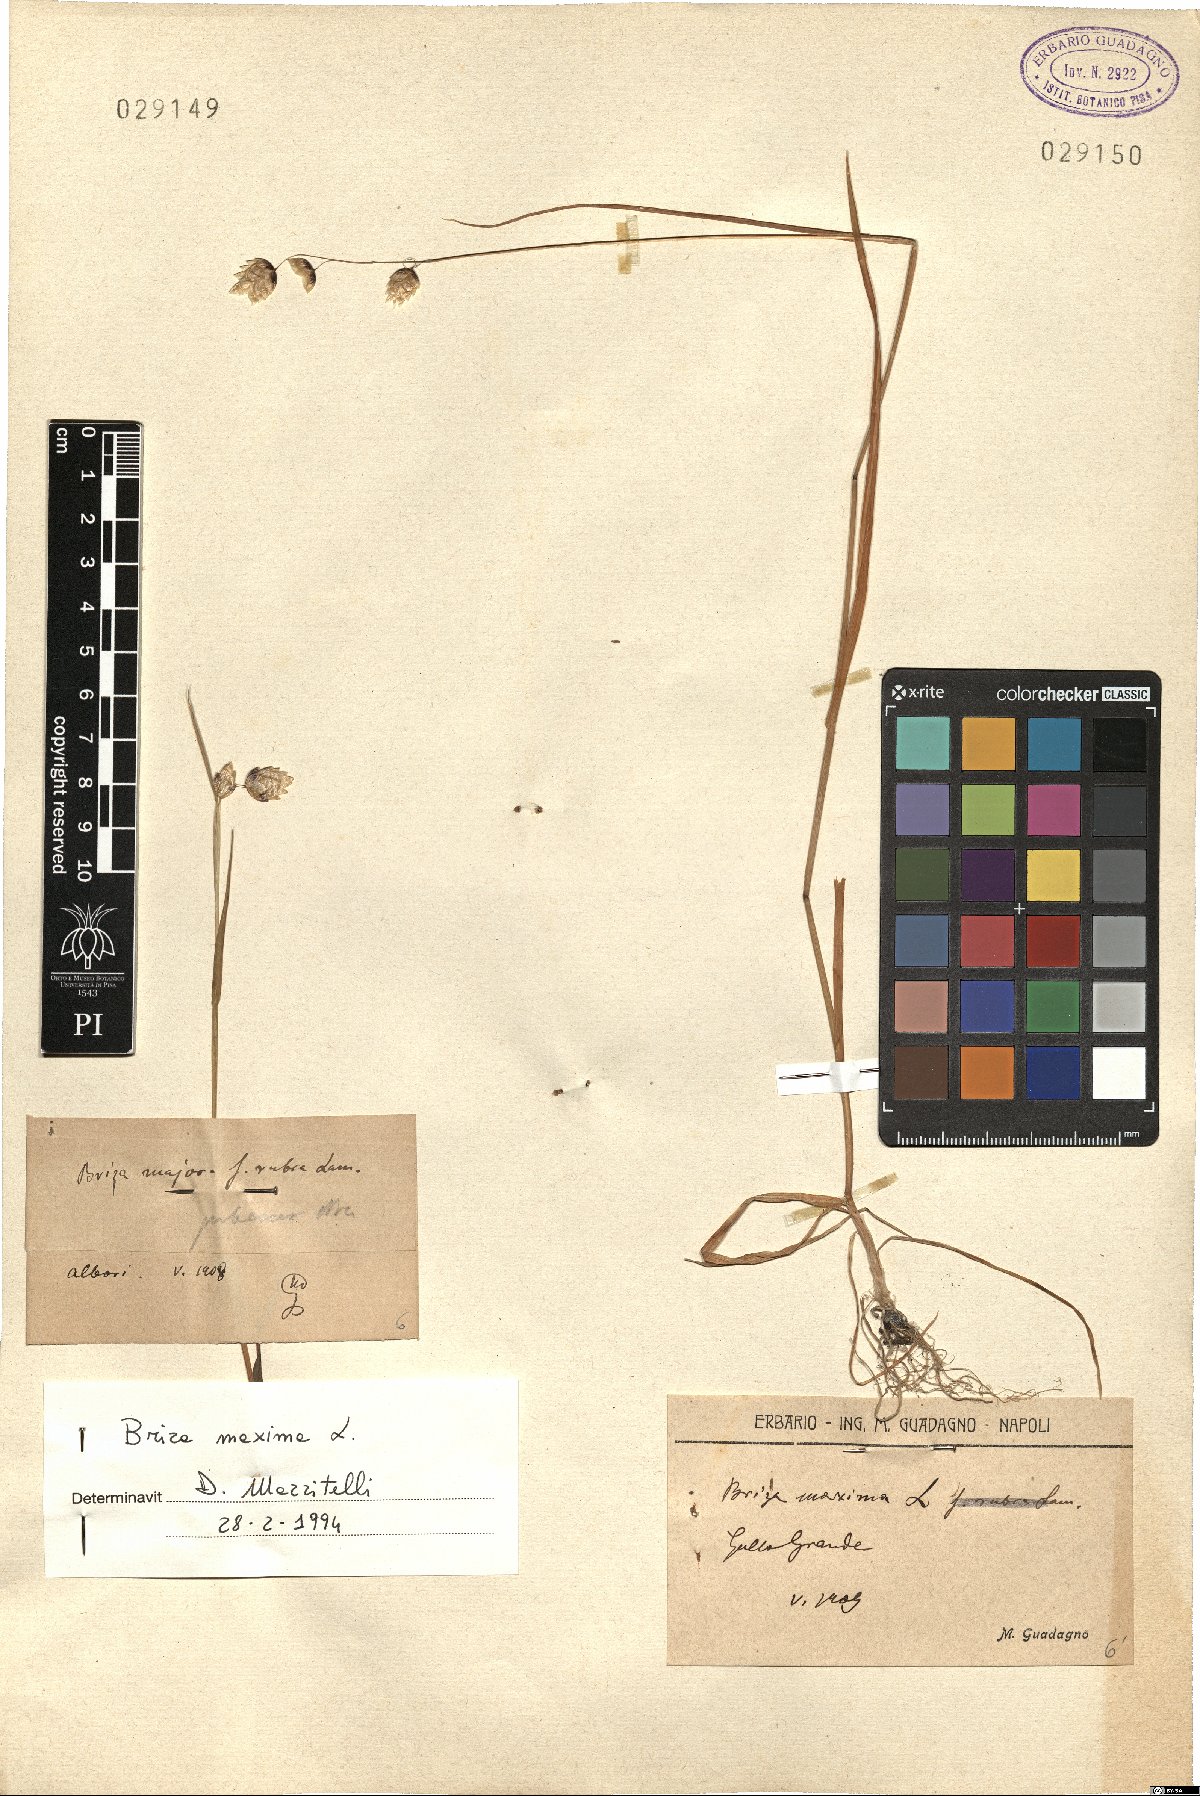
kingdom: Plantae
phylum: Tracheophyta
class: Liliopsida
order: Poales
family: Poaceae
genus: Briza
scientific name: Briza maxima
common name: Big quakinggrass
